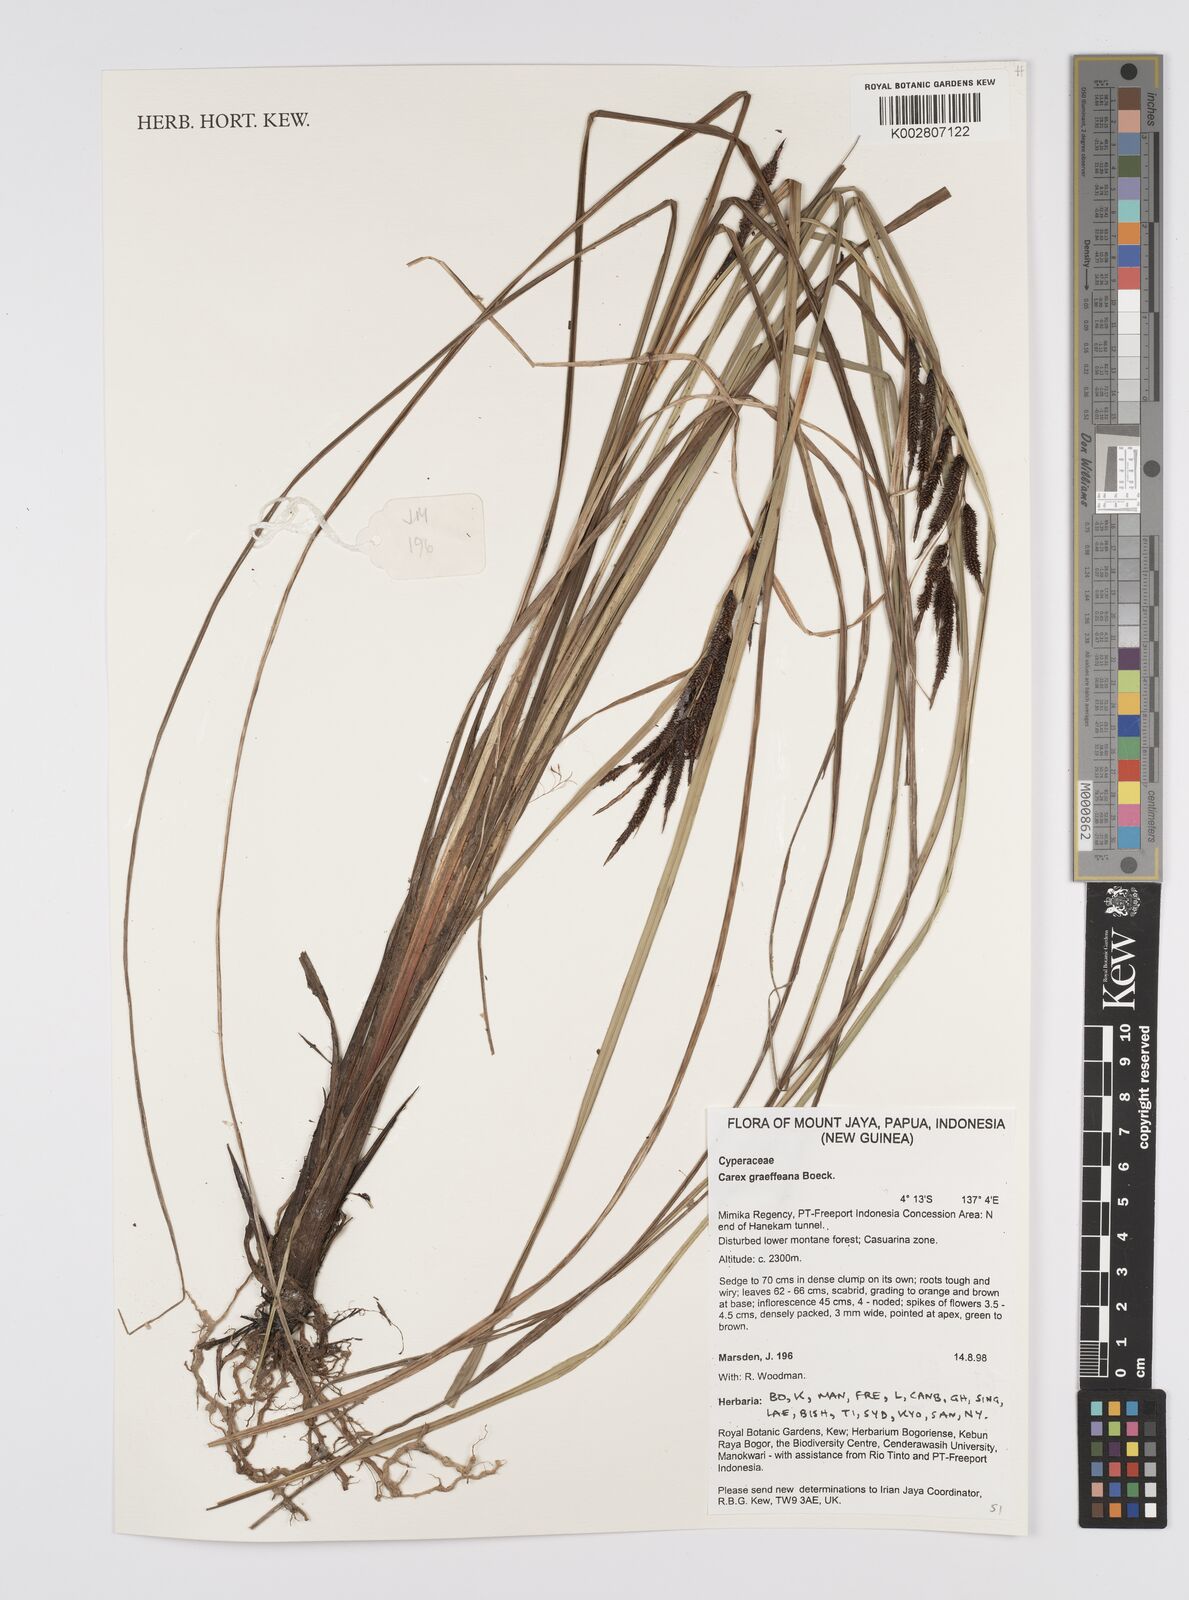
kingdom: Plantae
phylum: Tracheophyta
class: Liliopsida
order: Poales
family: Cyperaceae
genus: Carex
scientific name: Carex graeffeana
